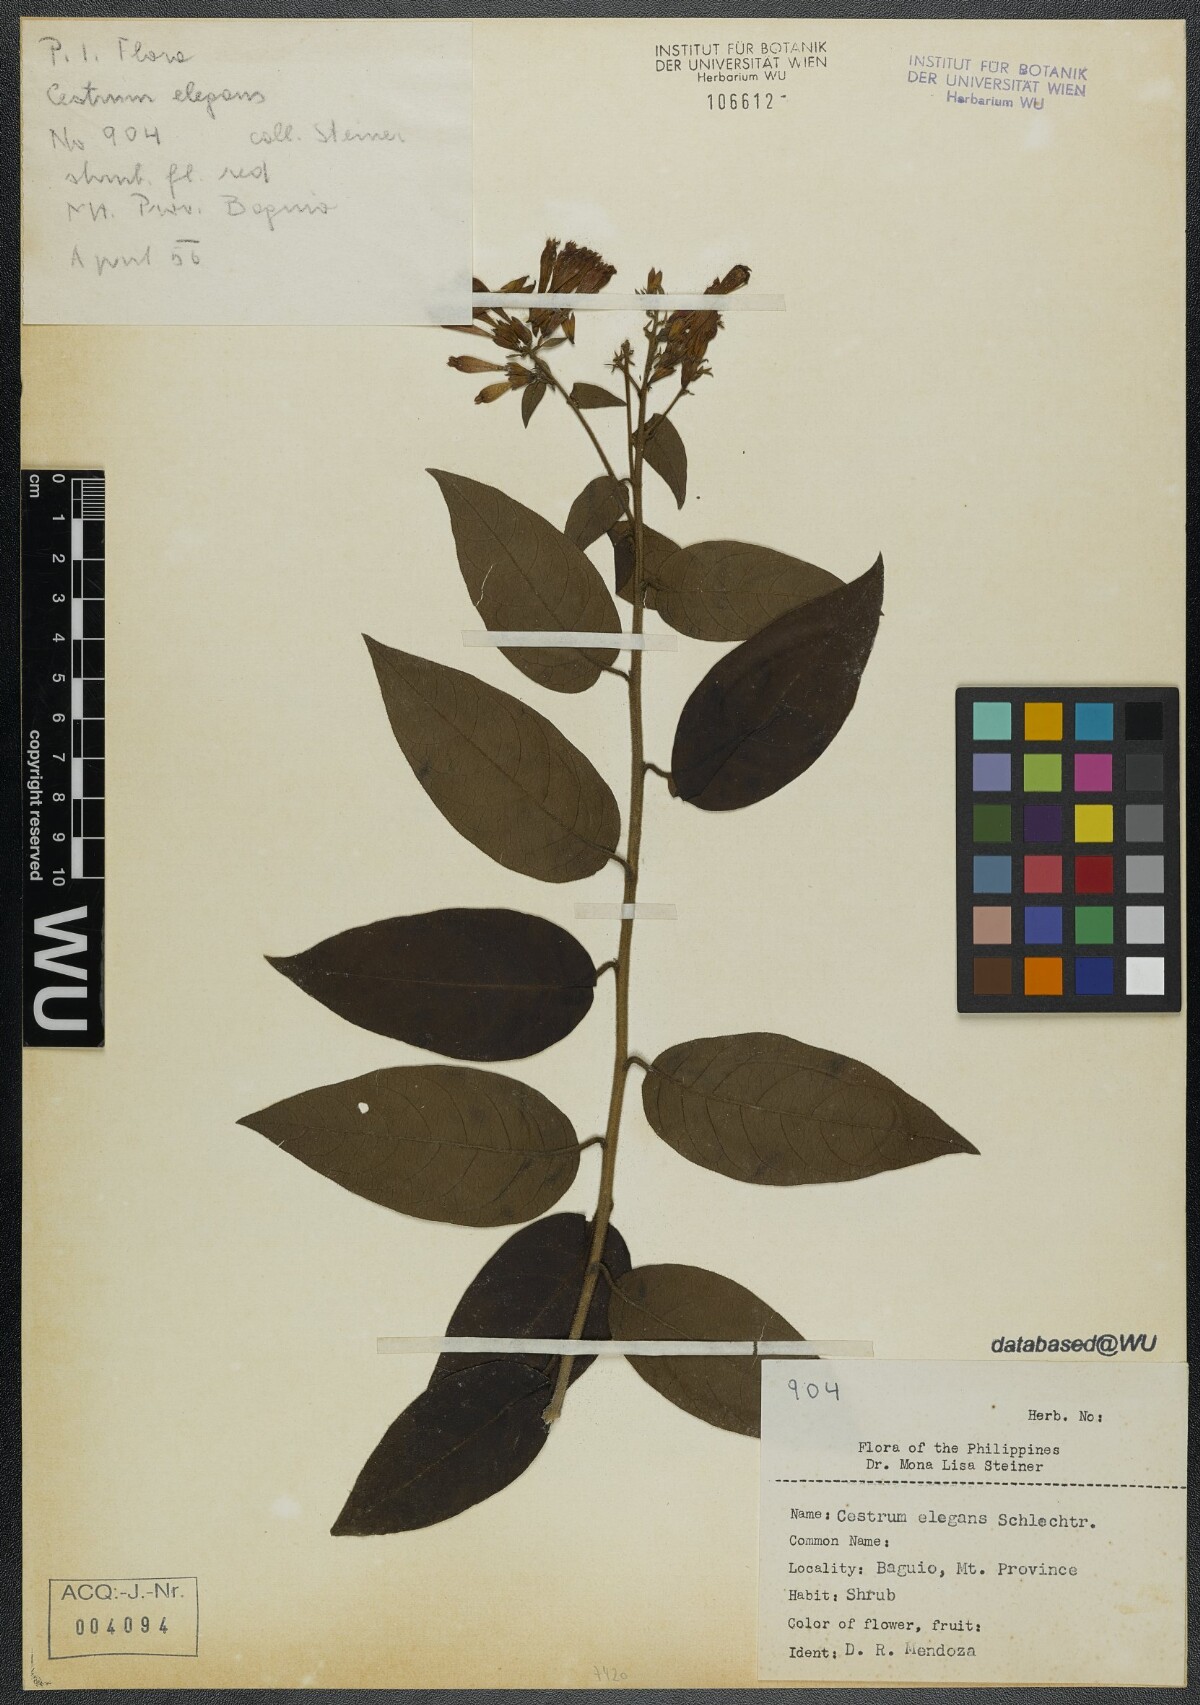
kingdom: Plantae
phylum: Tracheophyta
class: Magnoliopsida
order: Solanales
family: Solanaceae
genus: Cestrum
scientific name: Cestrum elegans
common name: Crimson cestrum
